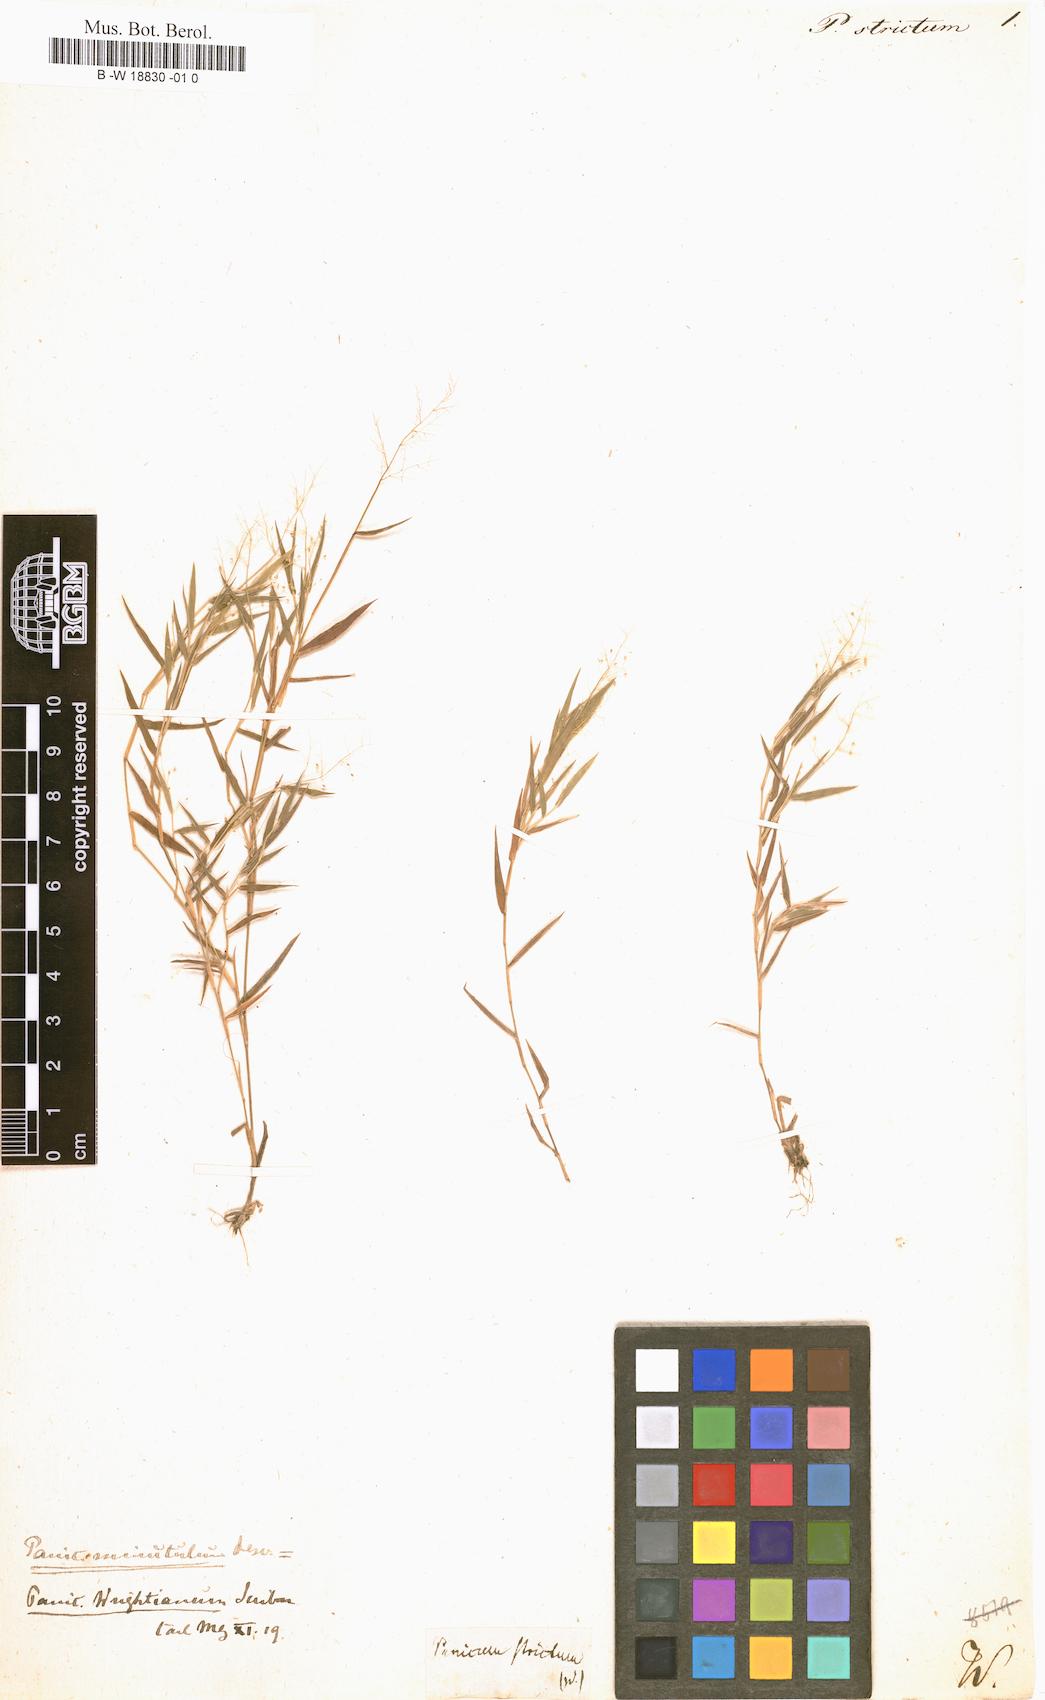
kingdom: Plantae
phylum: Tracheophyta
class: Liliopsida
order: Poales
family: Poaceae
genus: Entolasia
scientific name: Entolasia stricta
